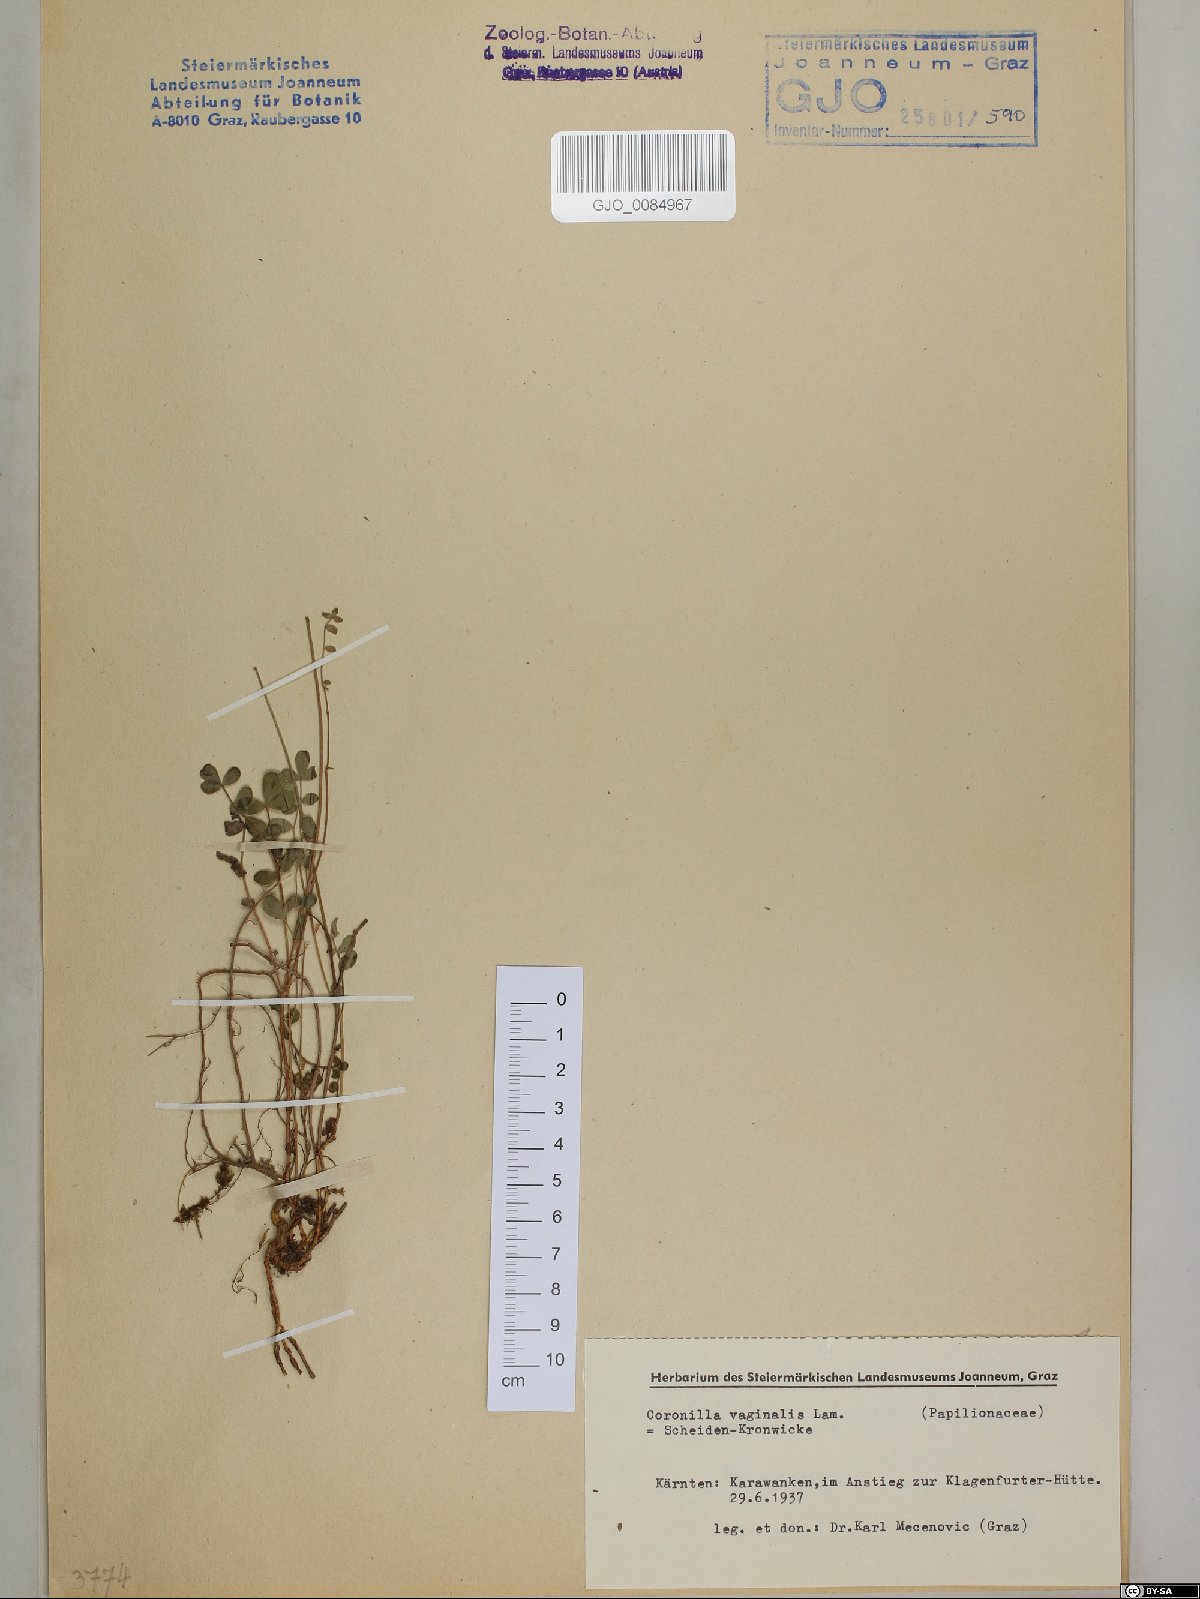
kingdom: Plantae
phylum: Tracheophyta
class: Magnoliopsida
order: Fabales
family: Fabaceae
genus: Coronilla
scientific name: Coronilla vaginalis
